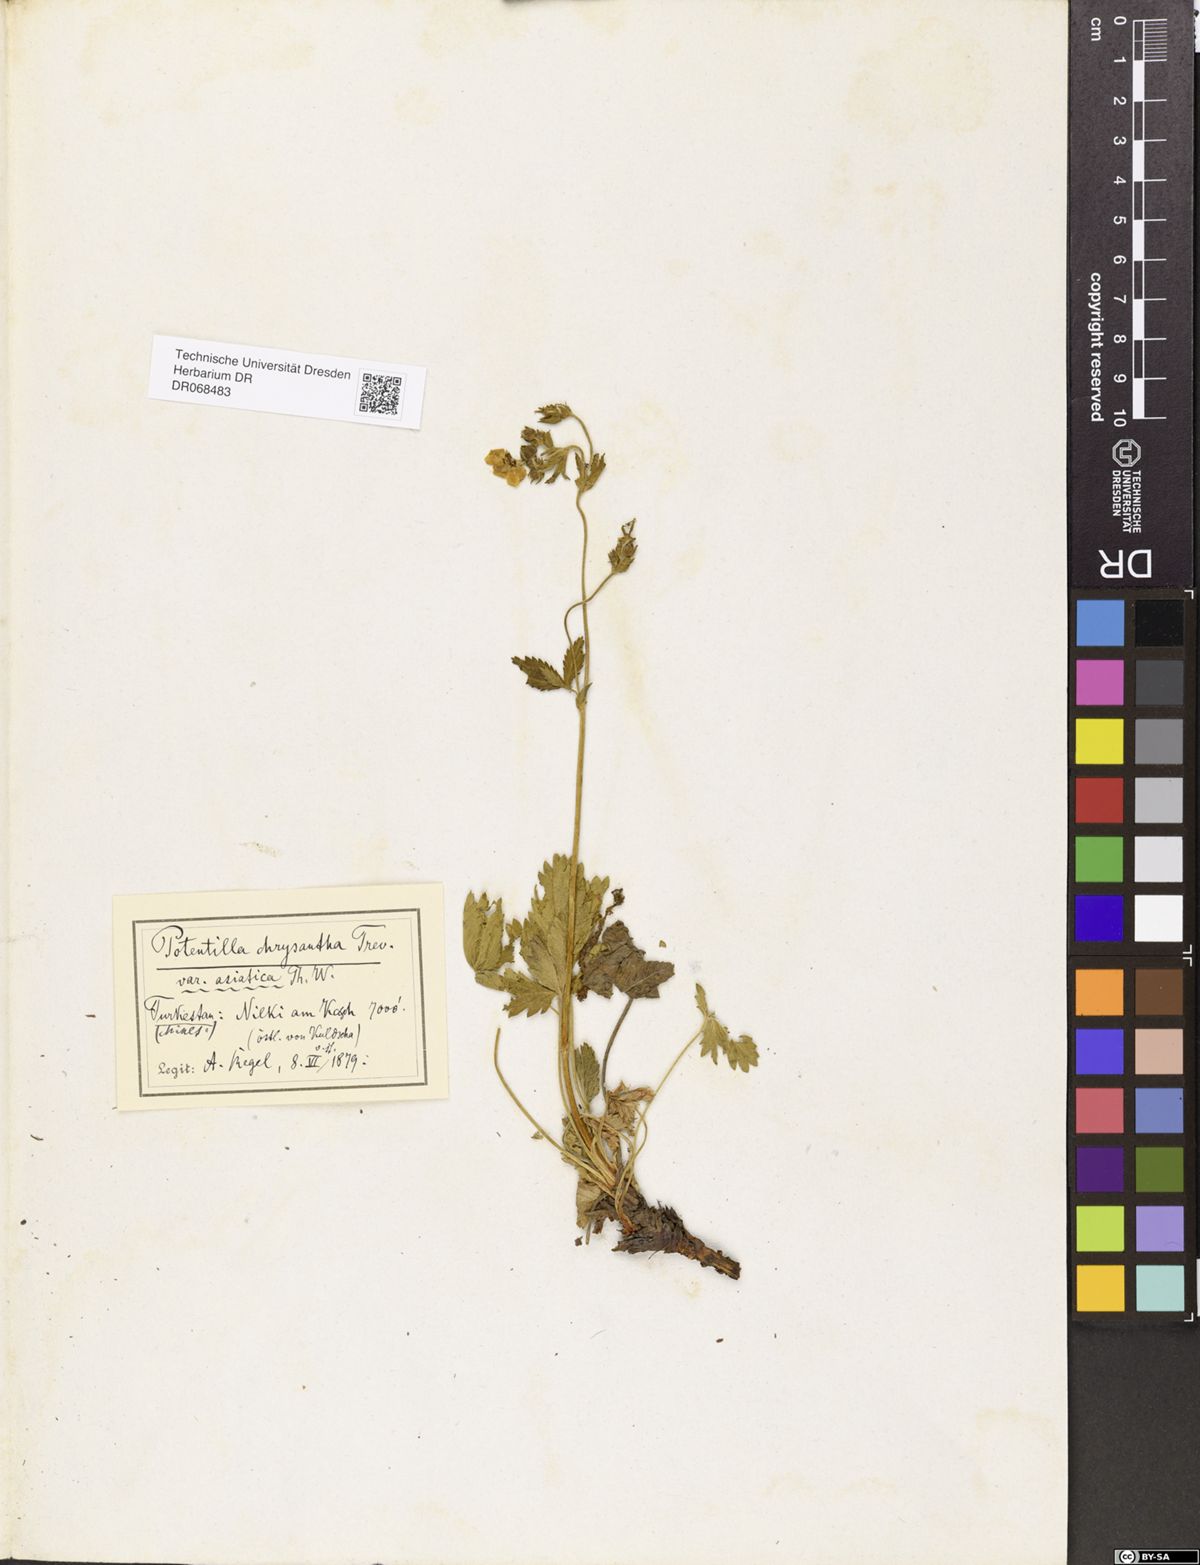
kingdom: Plantae
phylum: Tracheophyta
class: Magnoliopsida
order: Rosales
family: Rosaceae
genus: Potentilla
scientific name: Potentilla asiatica
